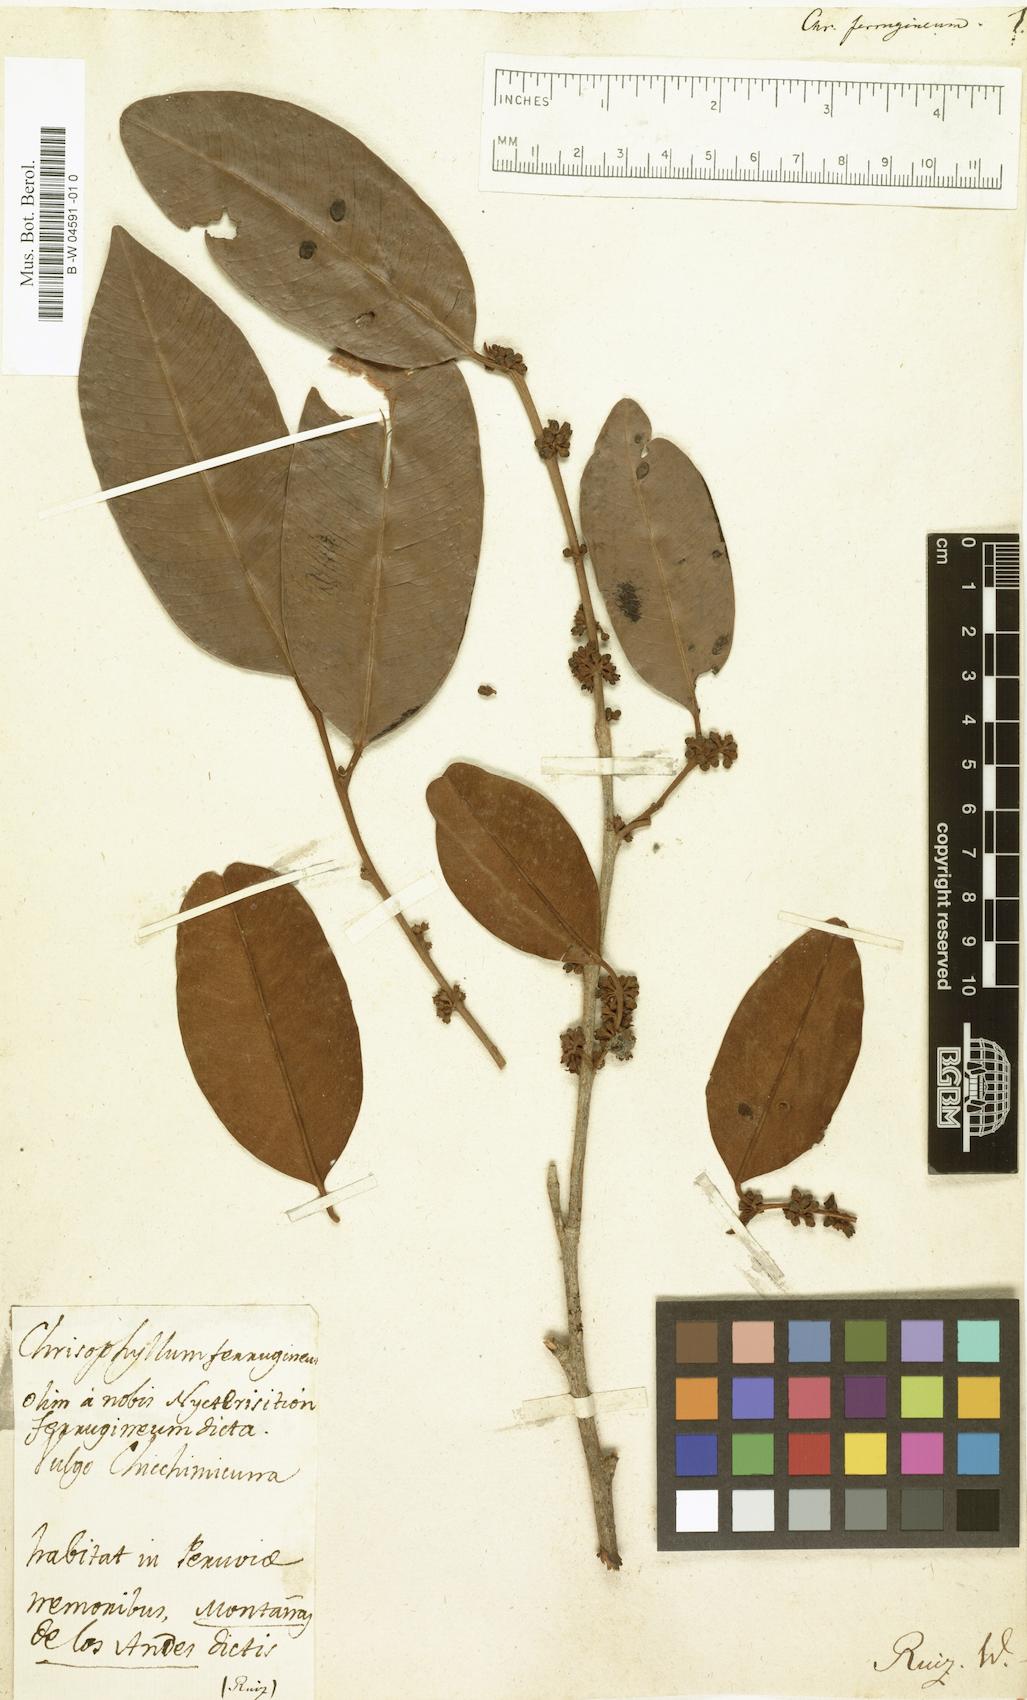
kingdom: Plantae
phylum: Tracheophyta
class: Magnoliopsida
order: Ericales
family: Sapotaceae
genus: Chrysophyllum
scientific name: Chrysophyllum
